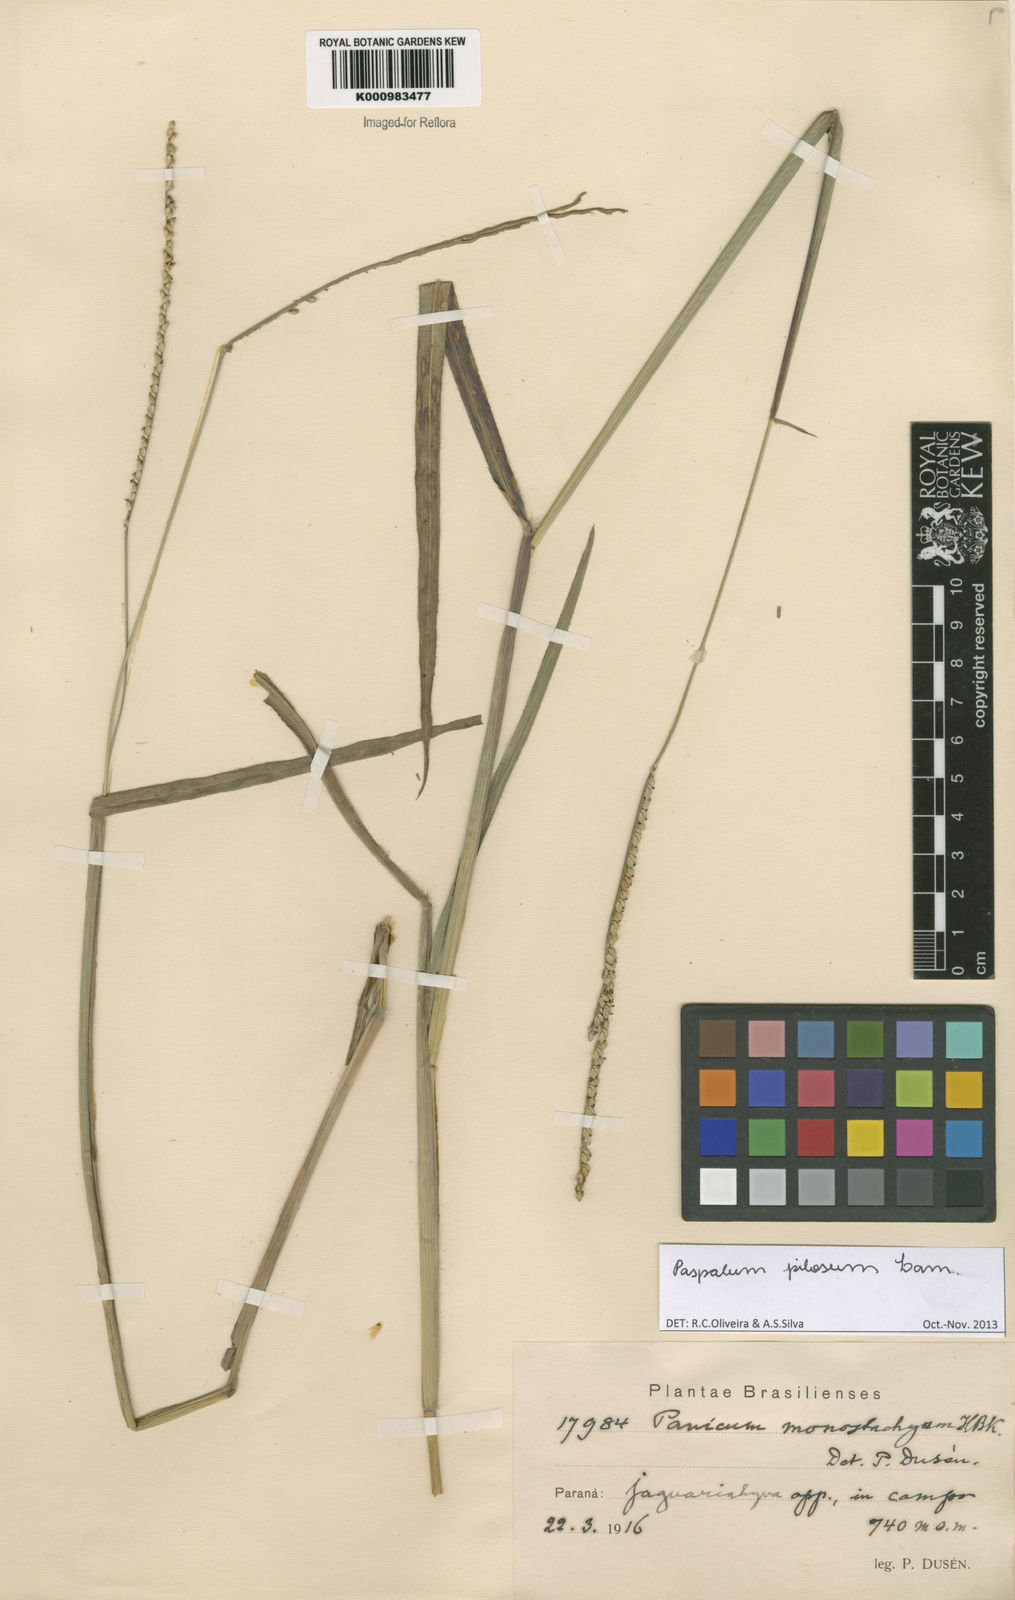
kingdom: Plantae
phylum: Tracheophyta
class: Liliopsida
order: Poales
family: Poaceae
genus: Paspalum
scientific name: Paspalum pilosum
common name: Crowngrass
